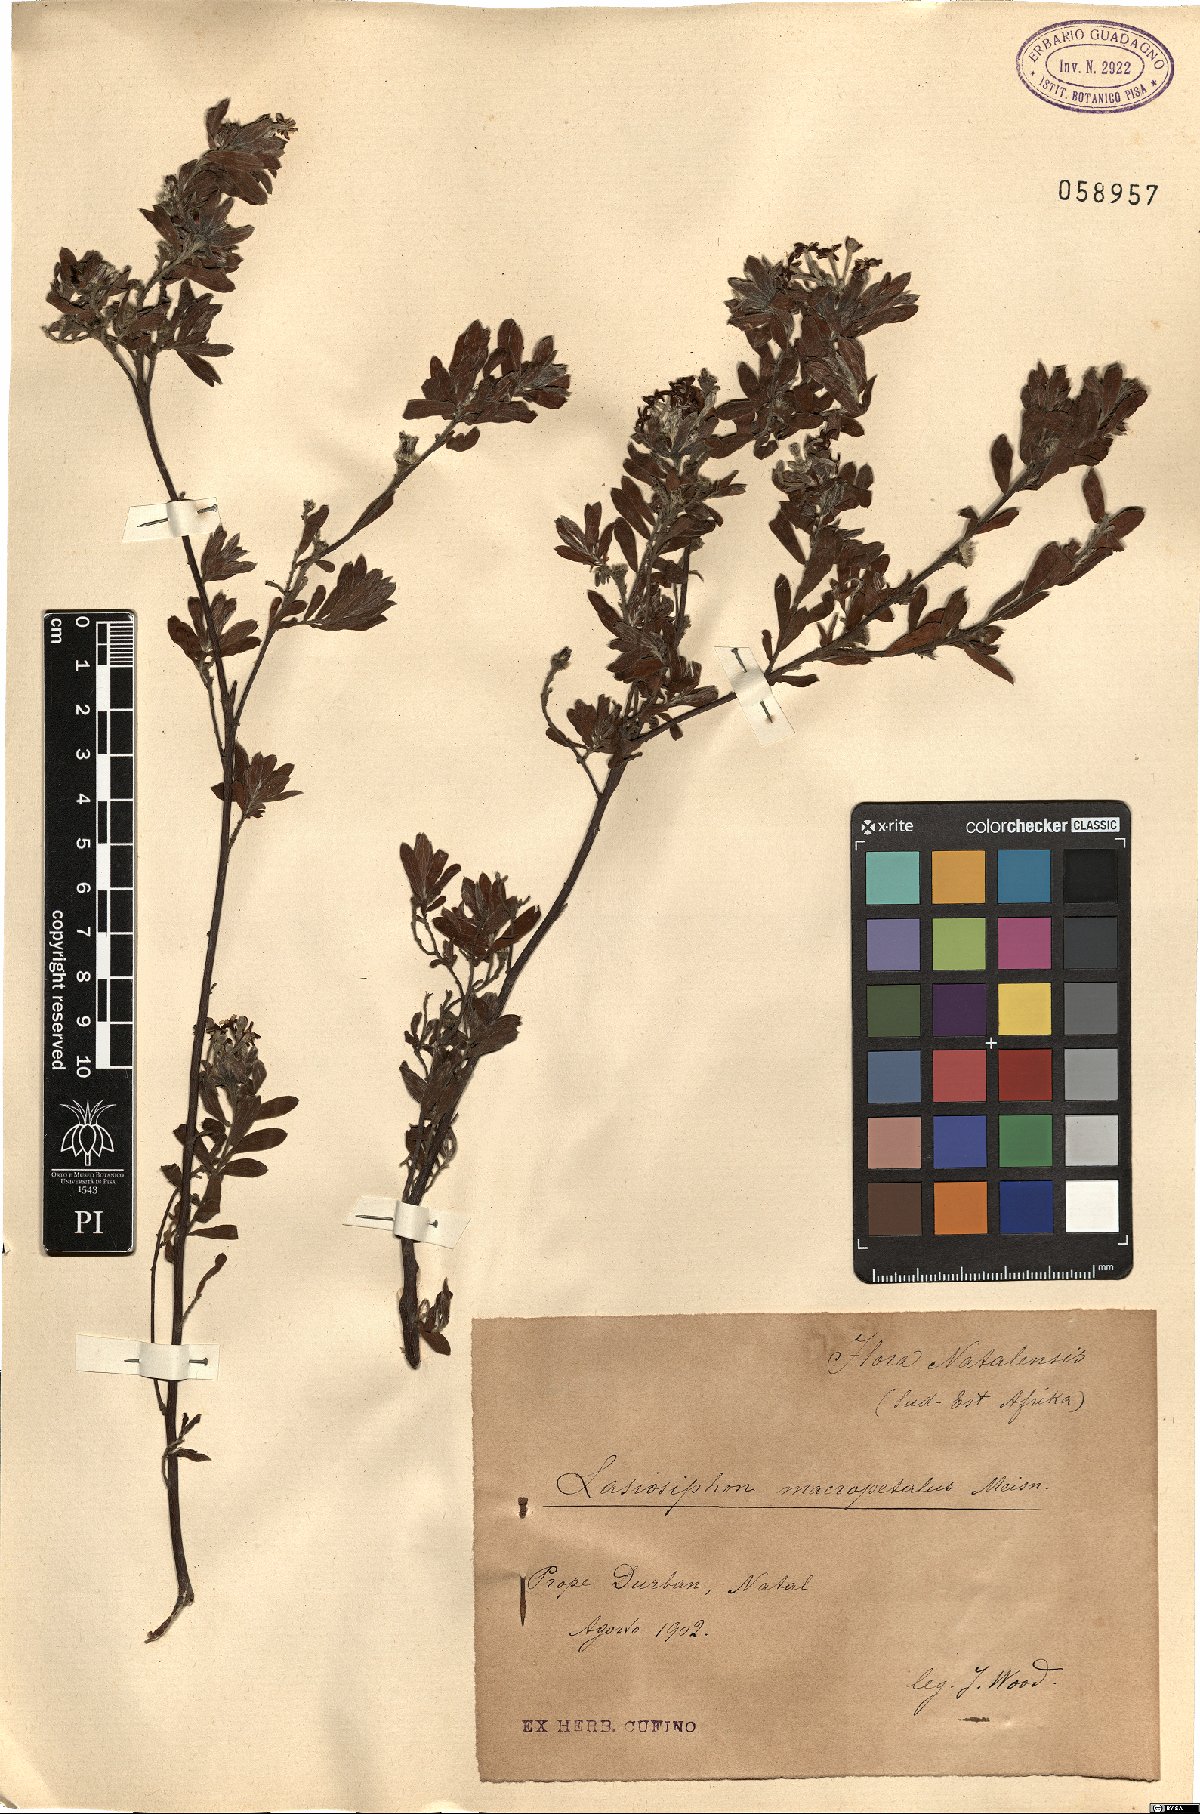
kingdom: Plantae
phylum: Tracheophyta
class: Magnoliopsida
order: Malvales
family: Thymelaeaceae
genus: Gnidia
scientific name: Gnidia macropetala
